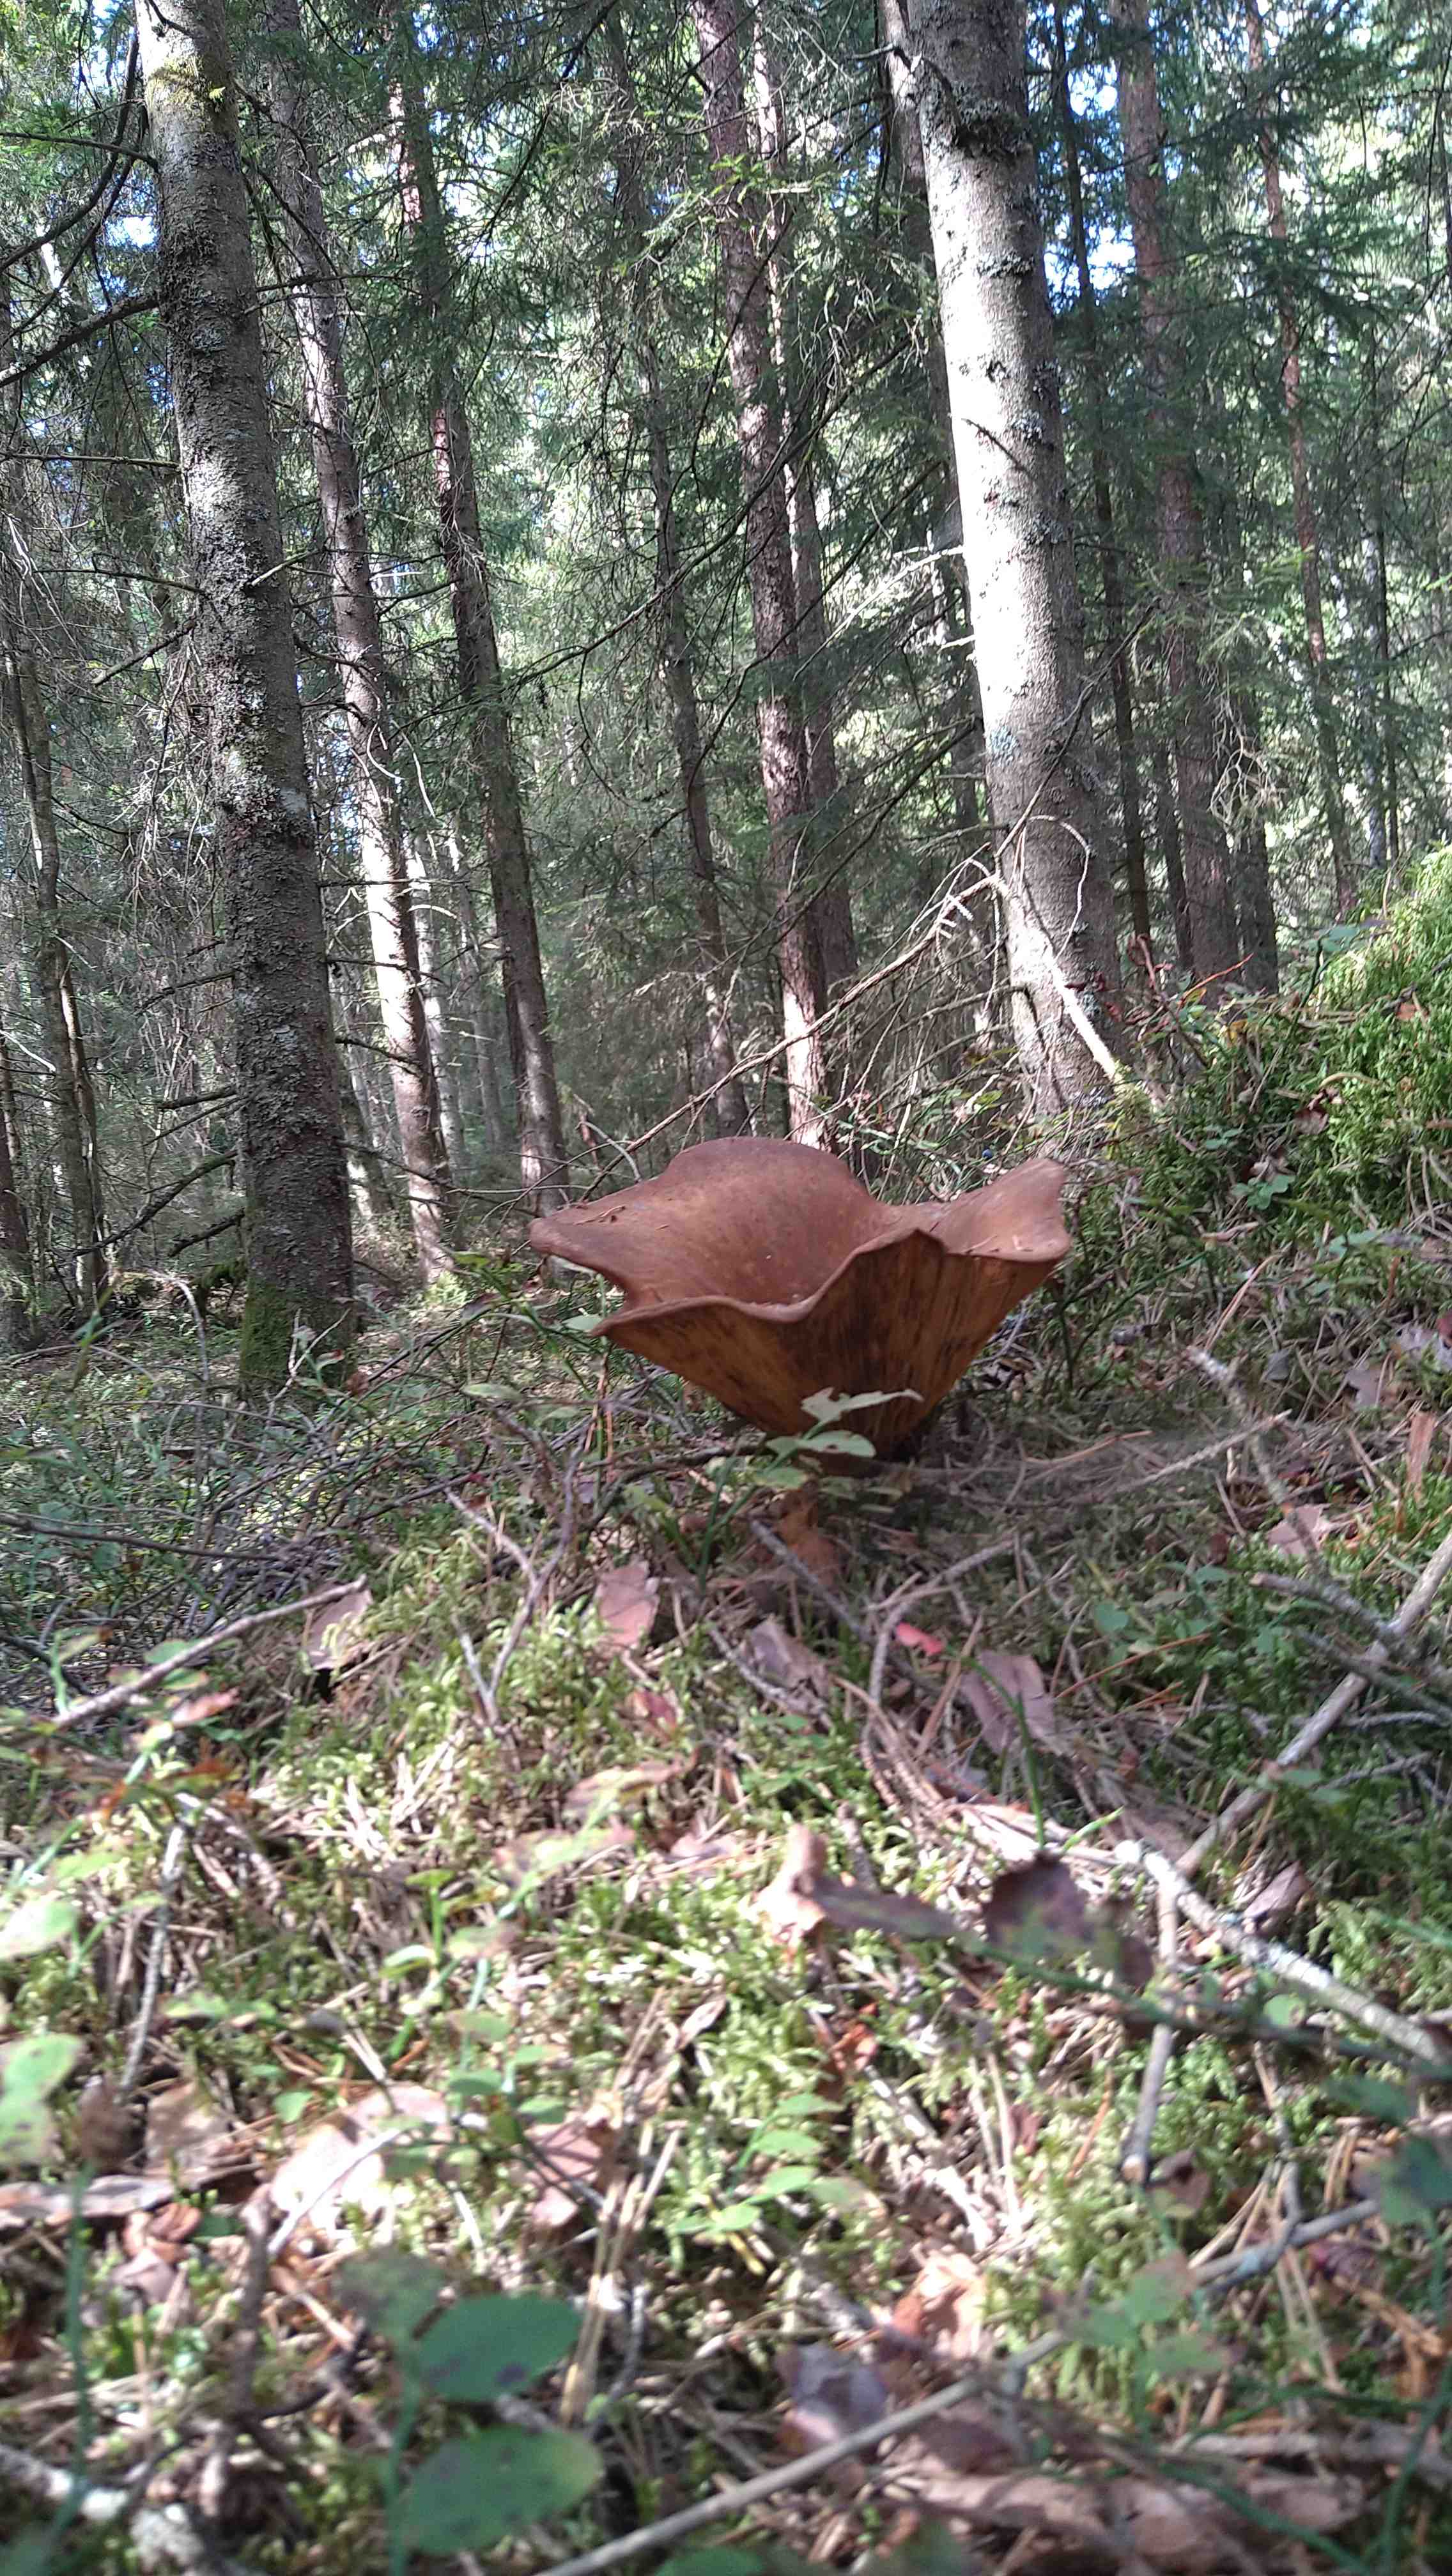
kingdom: Fungi
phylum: Basidiomycota
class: Agaricomycetes
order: Boletales
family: Tapinellaceae
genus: Tapinella
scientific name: Tapinella atrotomentosa
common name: sortfiltet viftesvamp
